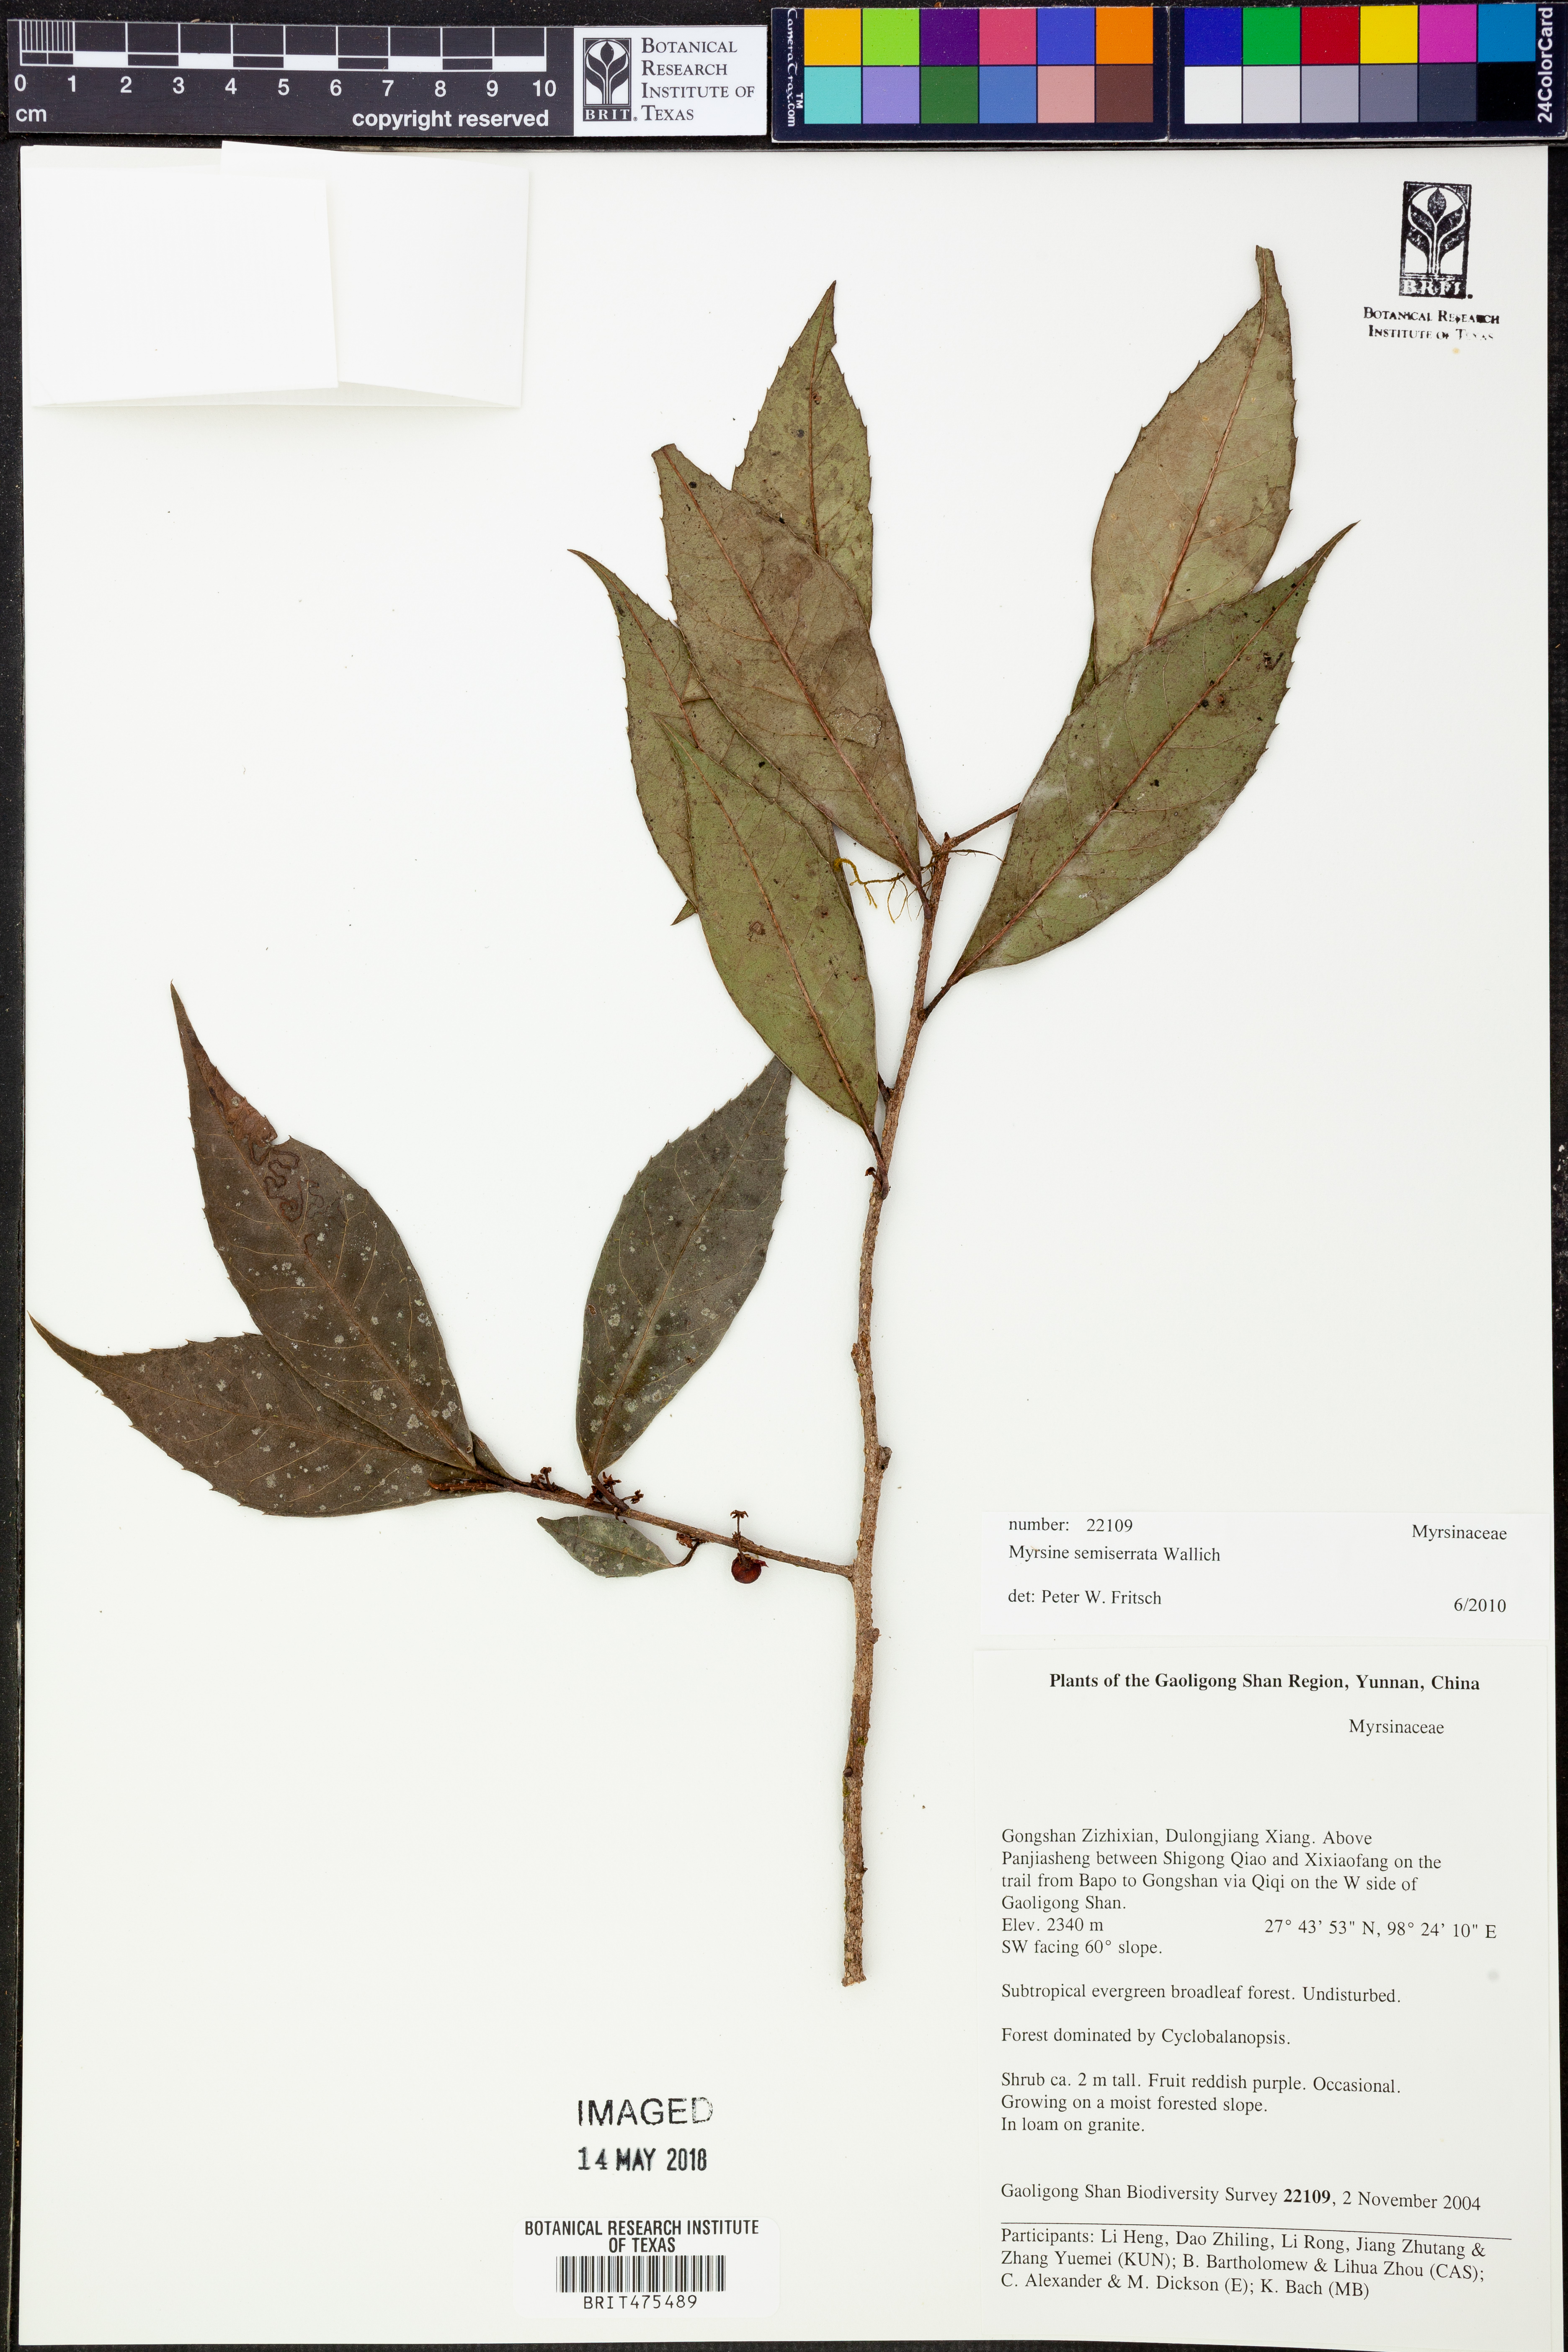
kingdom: Plantae
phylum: Tracheophyta
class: Magnoliopsida
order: Ericales
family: Primulaceae
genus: Myrsine
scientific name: Myrsine semiserrata
